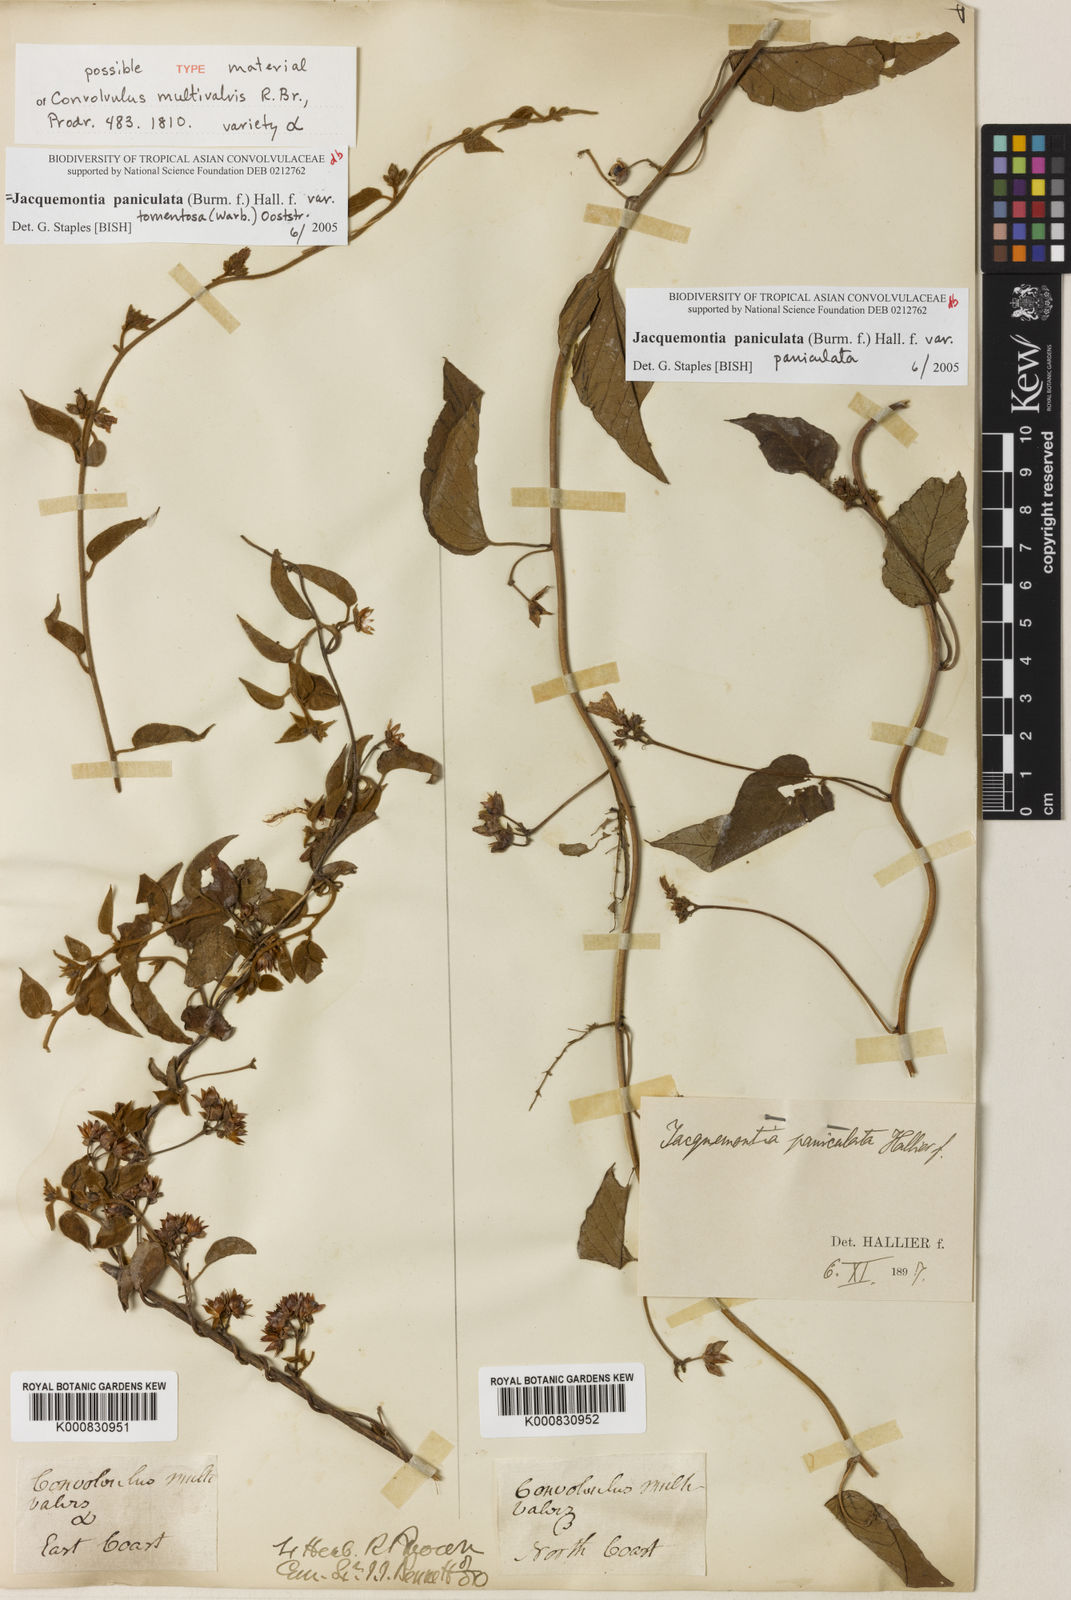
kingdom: Plantae
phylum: Tracheophyta
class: Magnoliopsida
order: Solanales
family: Convolvulaceae
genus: Jacquemontia
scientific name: Jacquemontia paniculata
